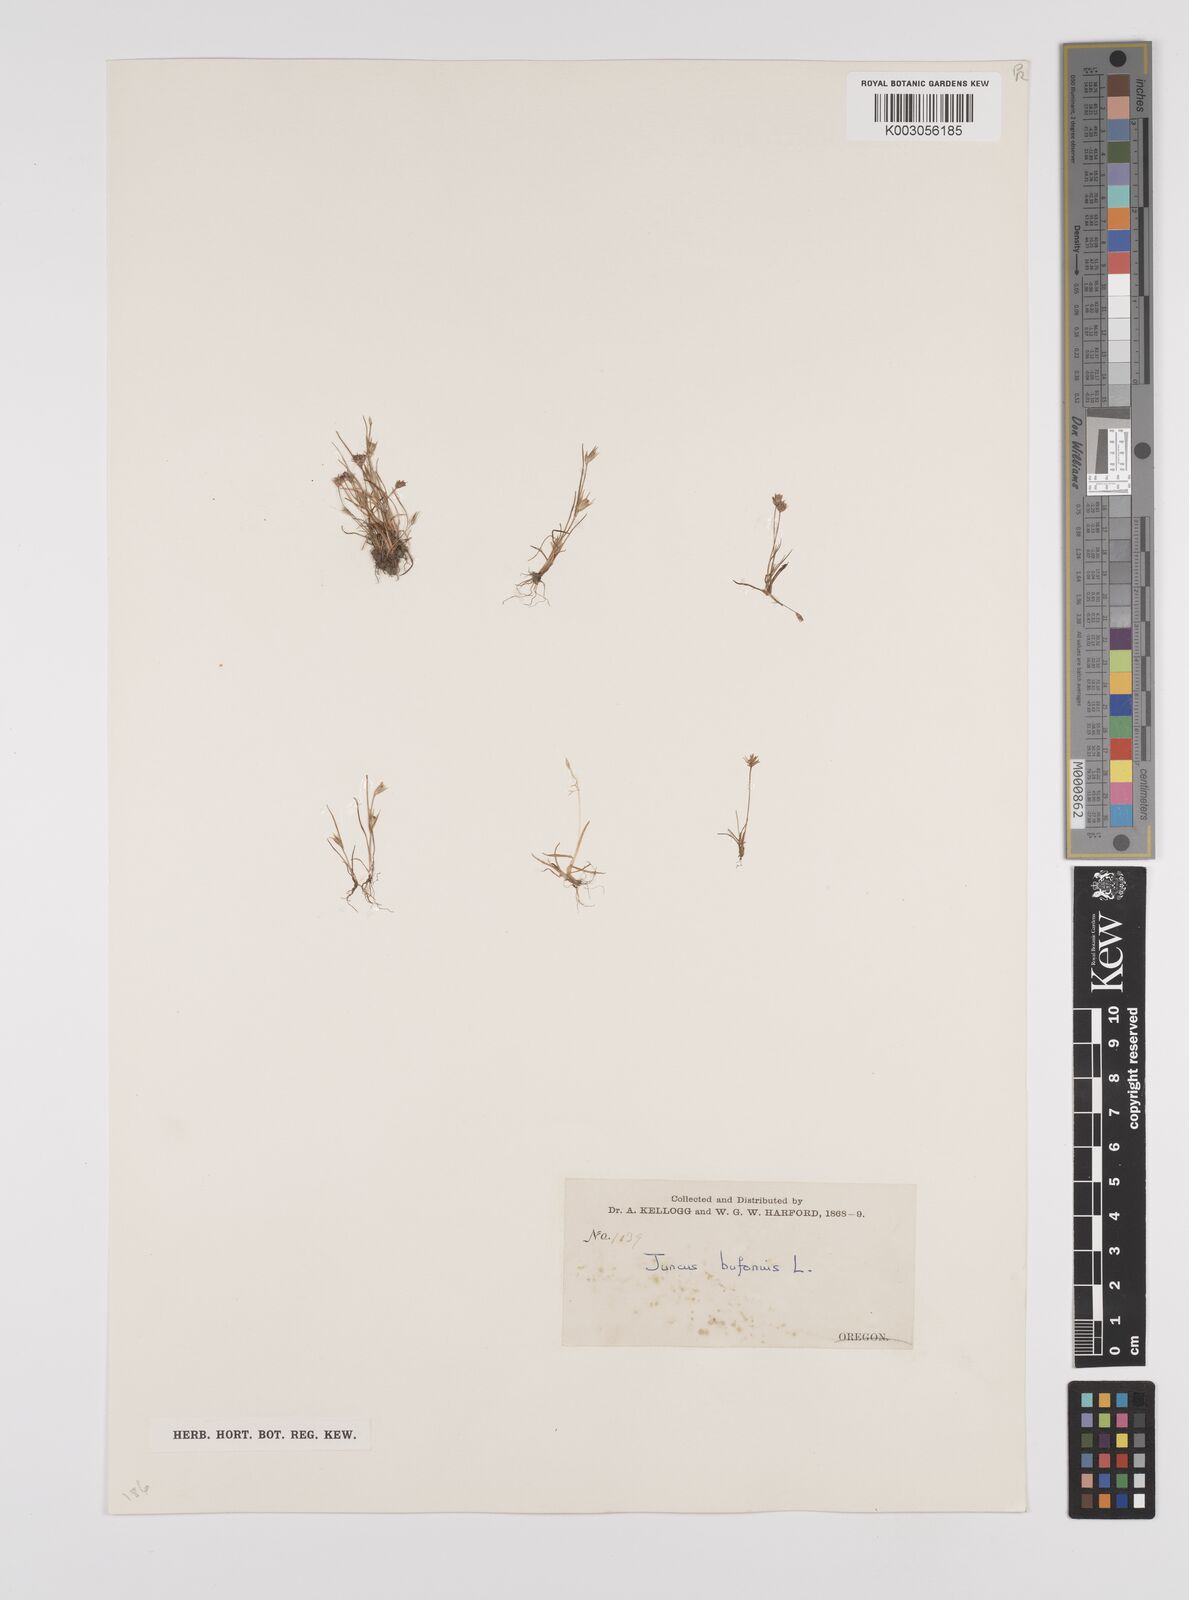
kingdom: Plantae
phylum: Tracheophyta
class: Liliopsida
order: Poales
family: Juncaceae
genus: Juncus
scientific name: Juncus bufonius
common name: Toad rush
